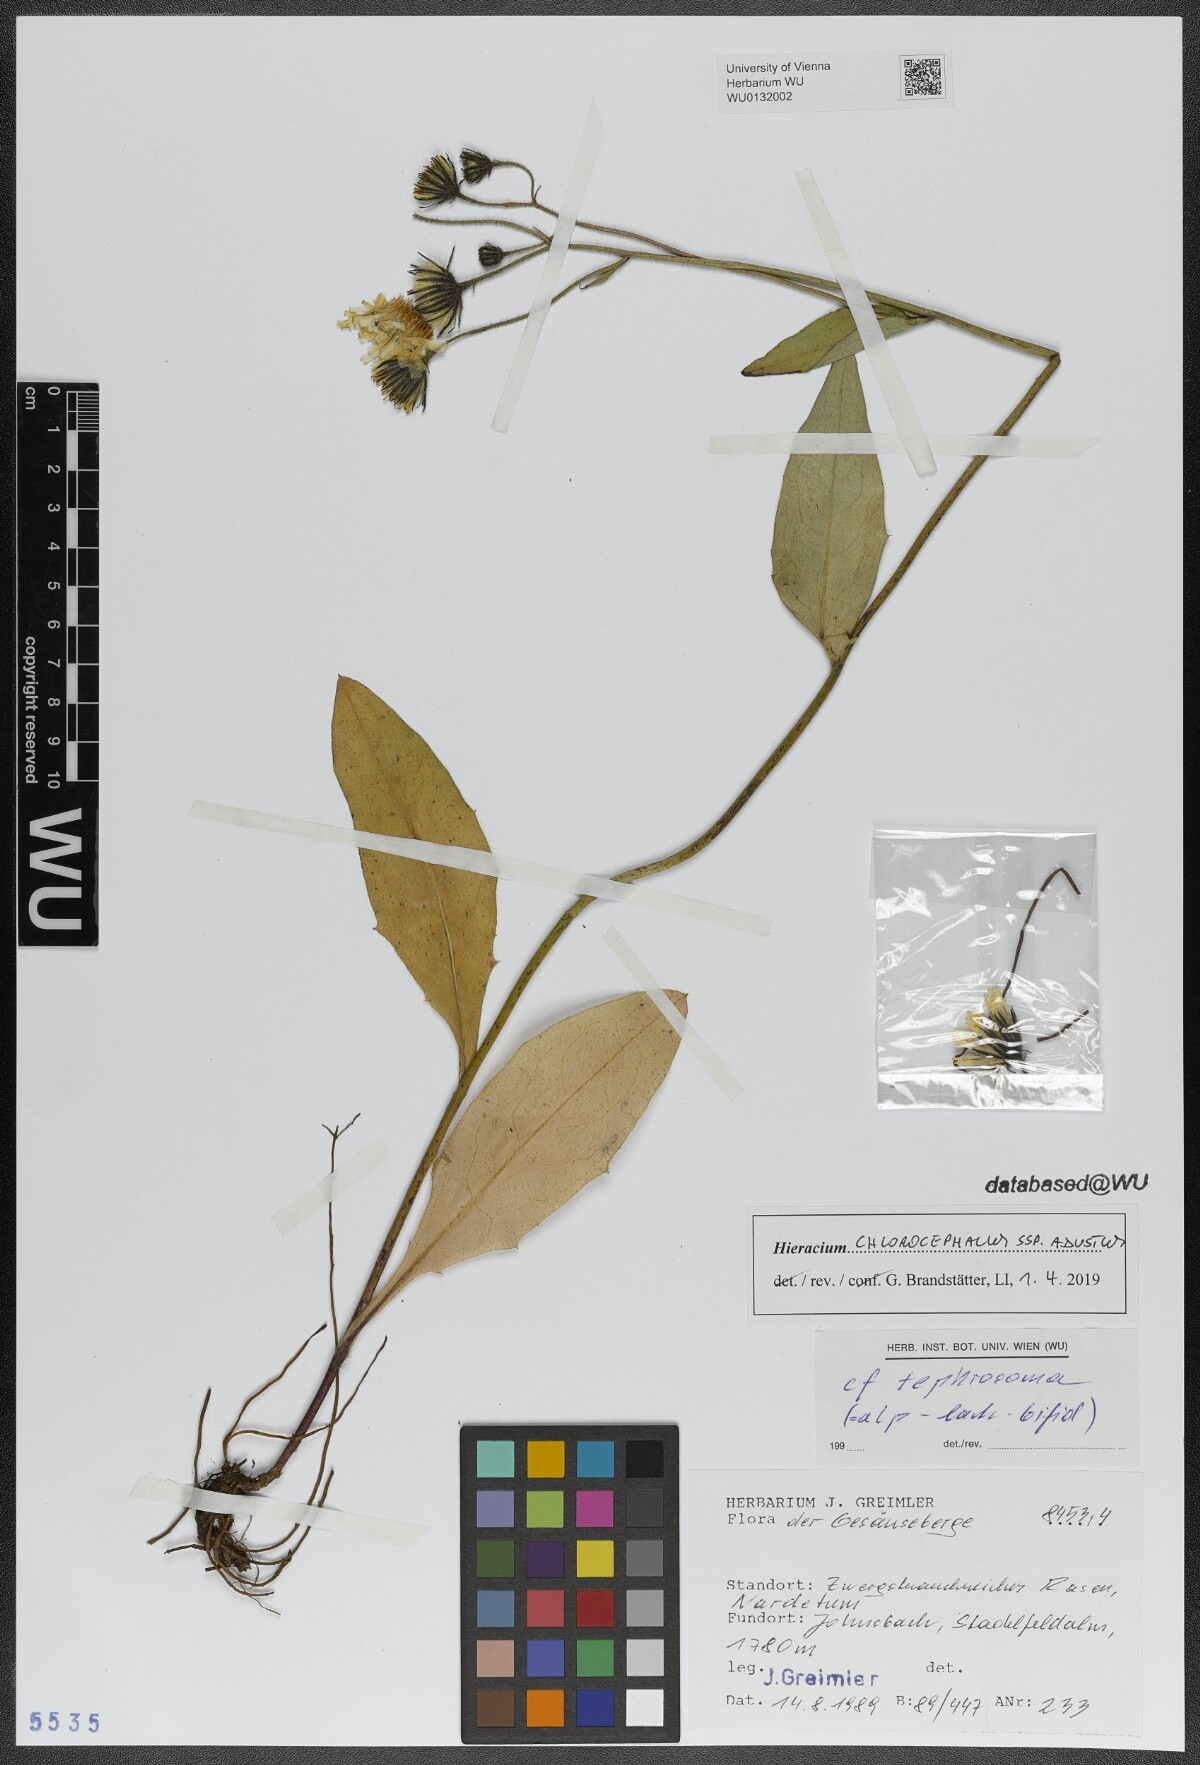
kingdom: Plantae
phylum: Tracheophyta
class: Magnoliopsida
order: Asterales
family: Asteraceae
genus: Hieracium
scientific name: Hieracium chlorocephalum
